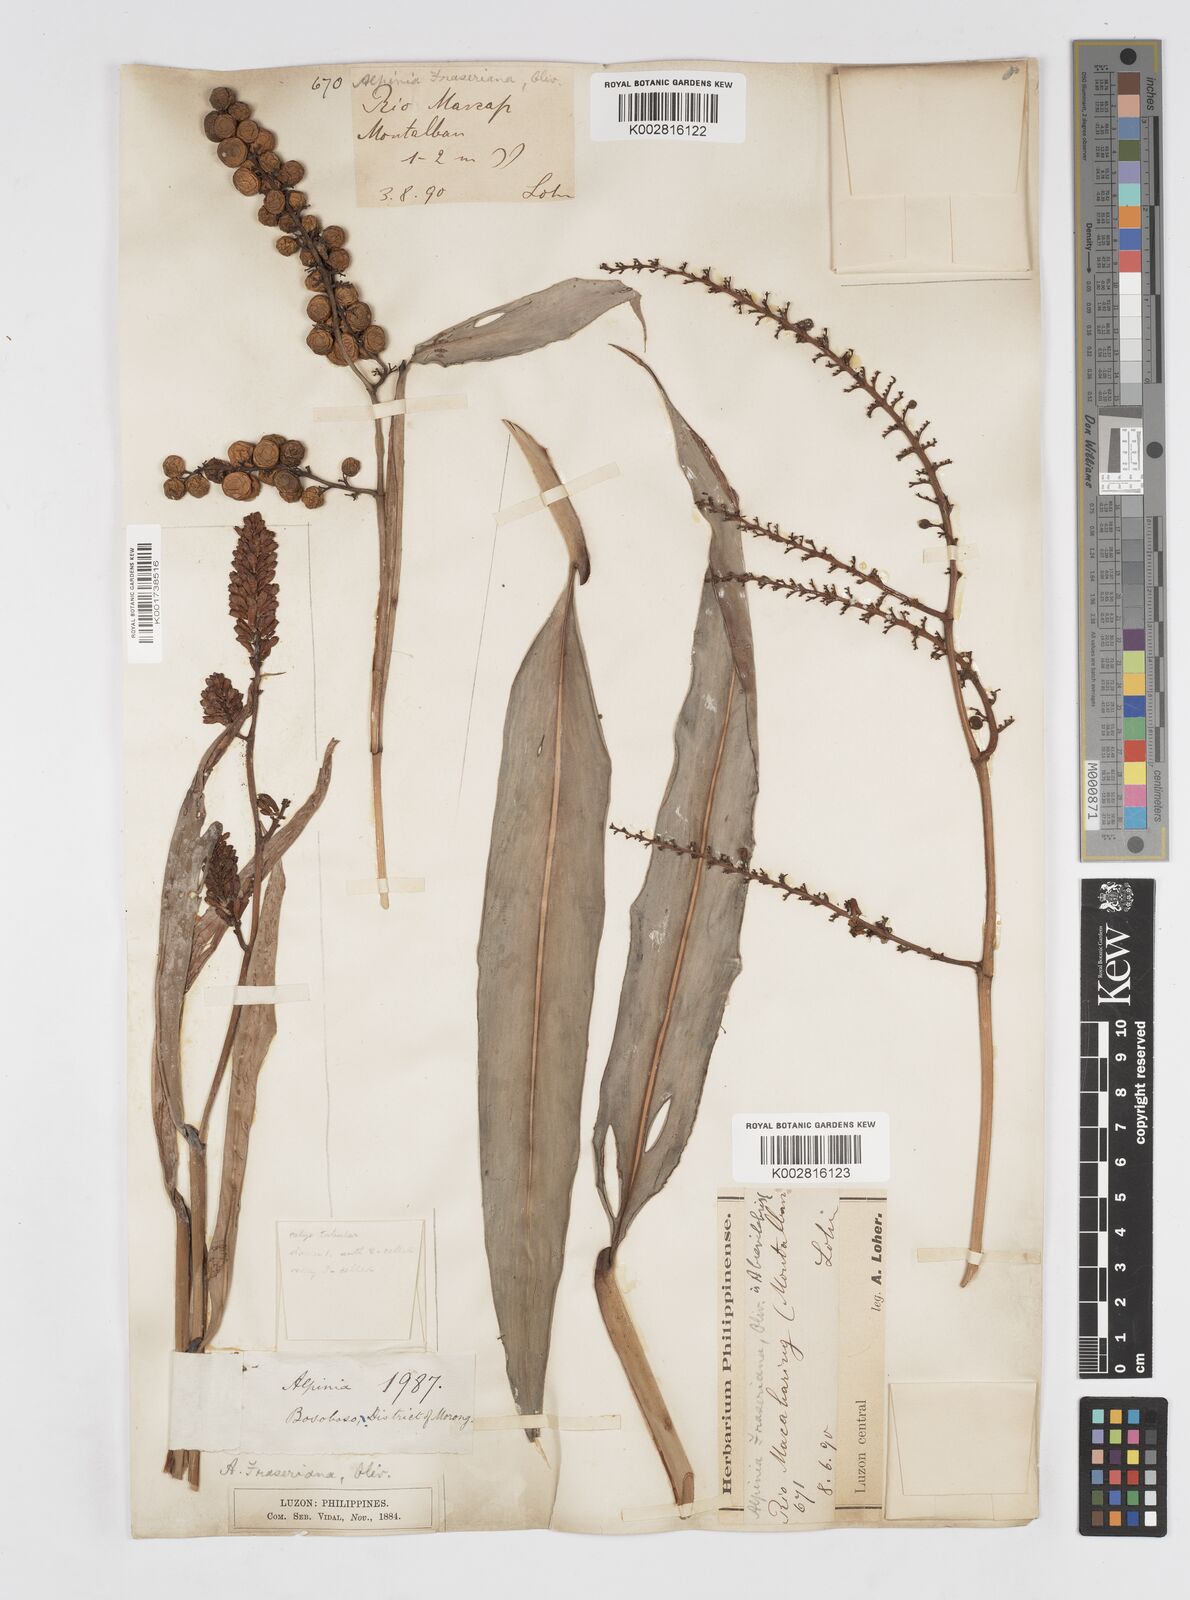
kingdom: Plantae
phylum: Tracheophyta
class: Liliopsida
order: Zingiberales
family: Zingiberaceae
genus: Alpinia
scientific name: Alpinia brevilabris
